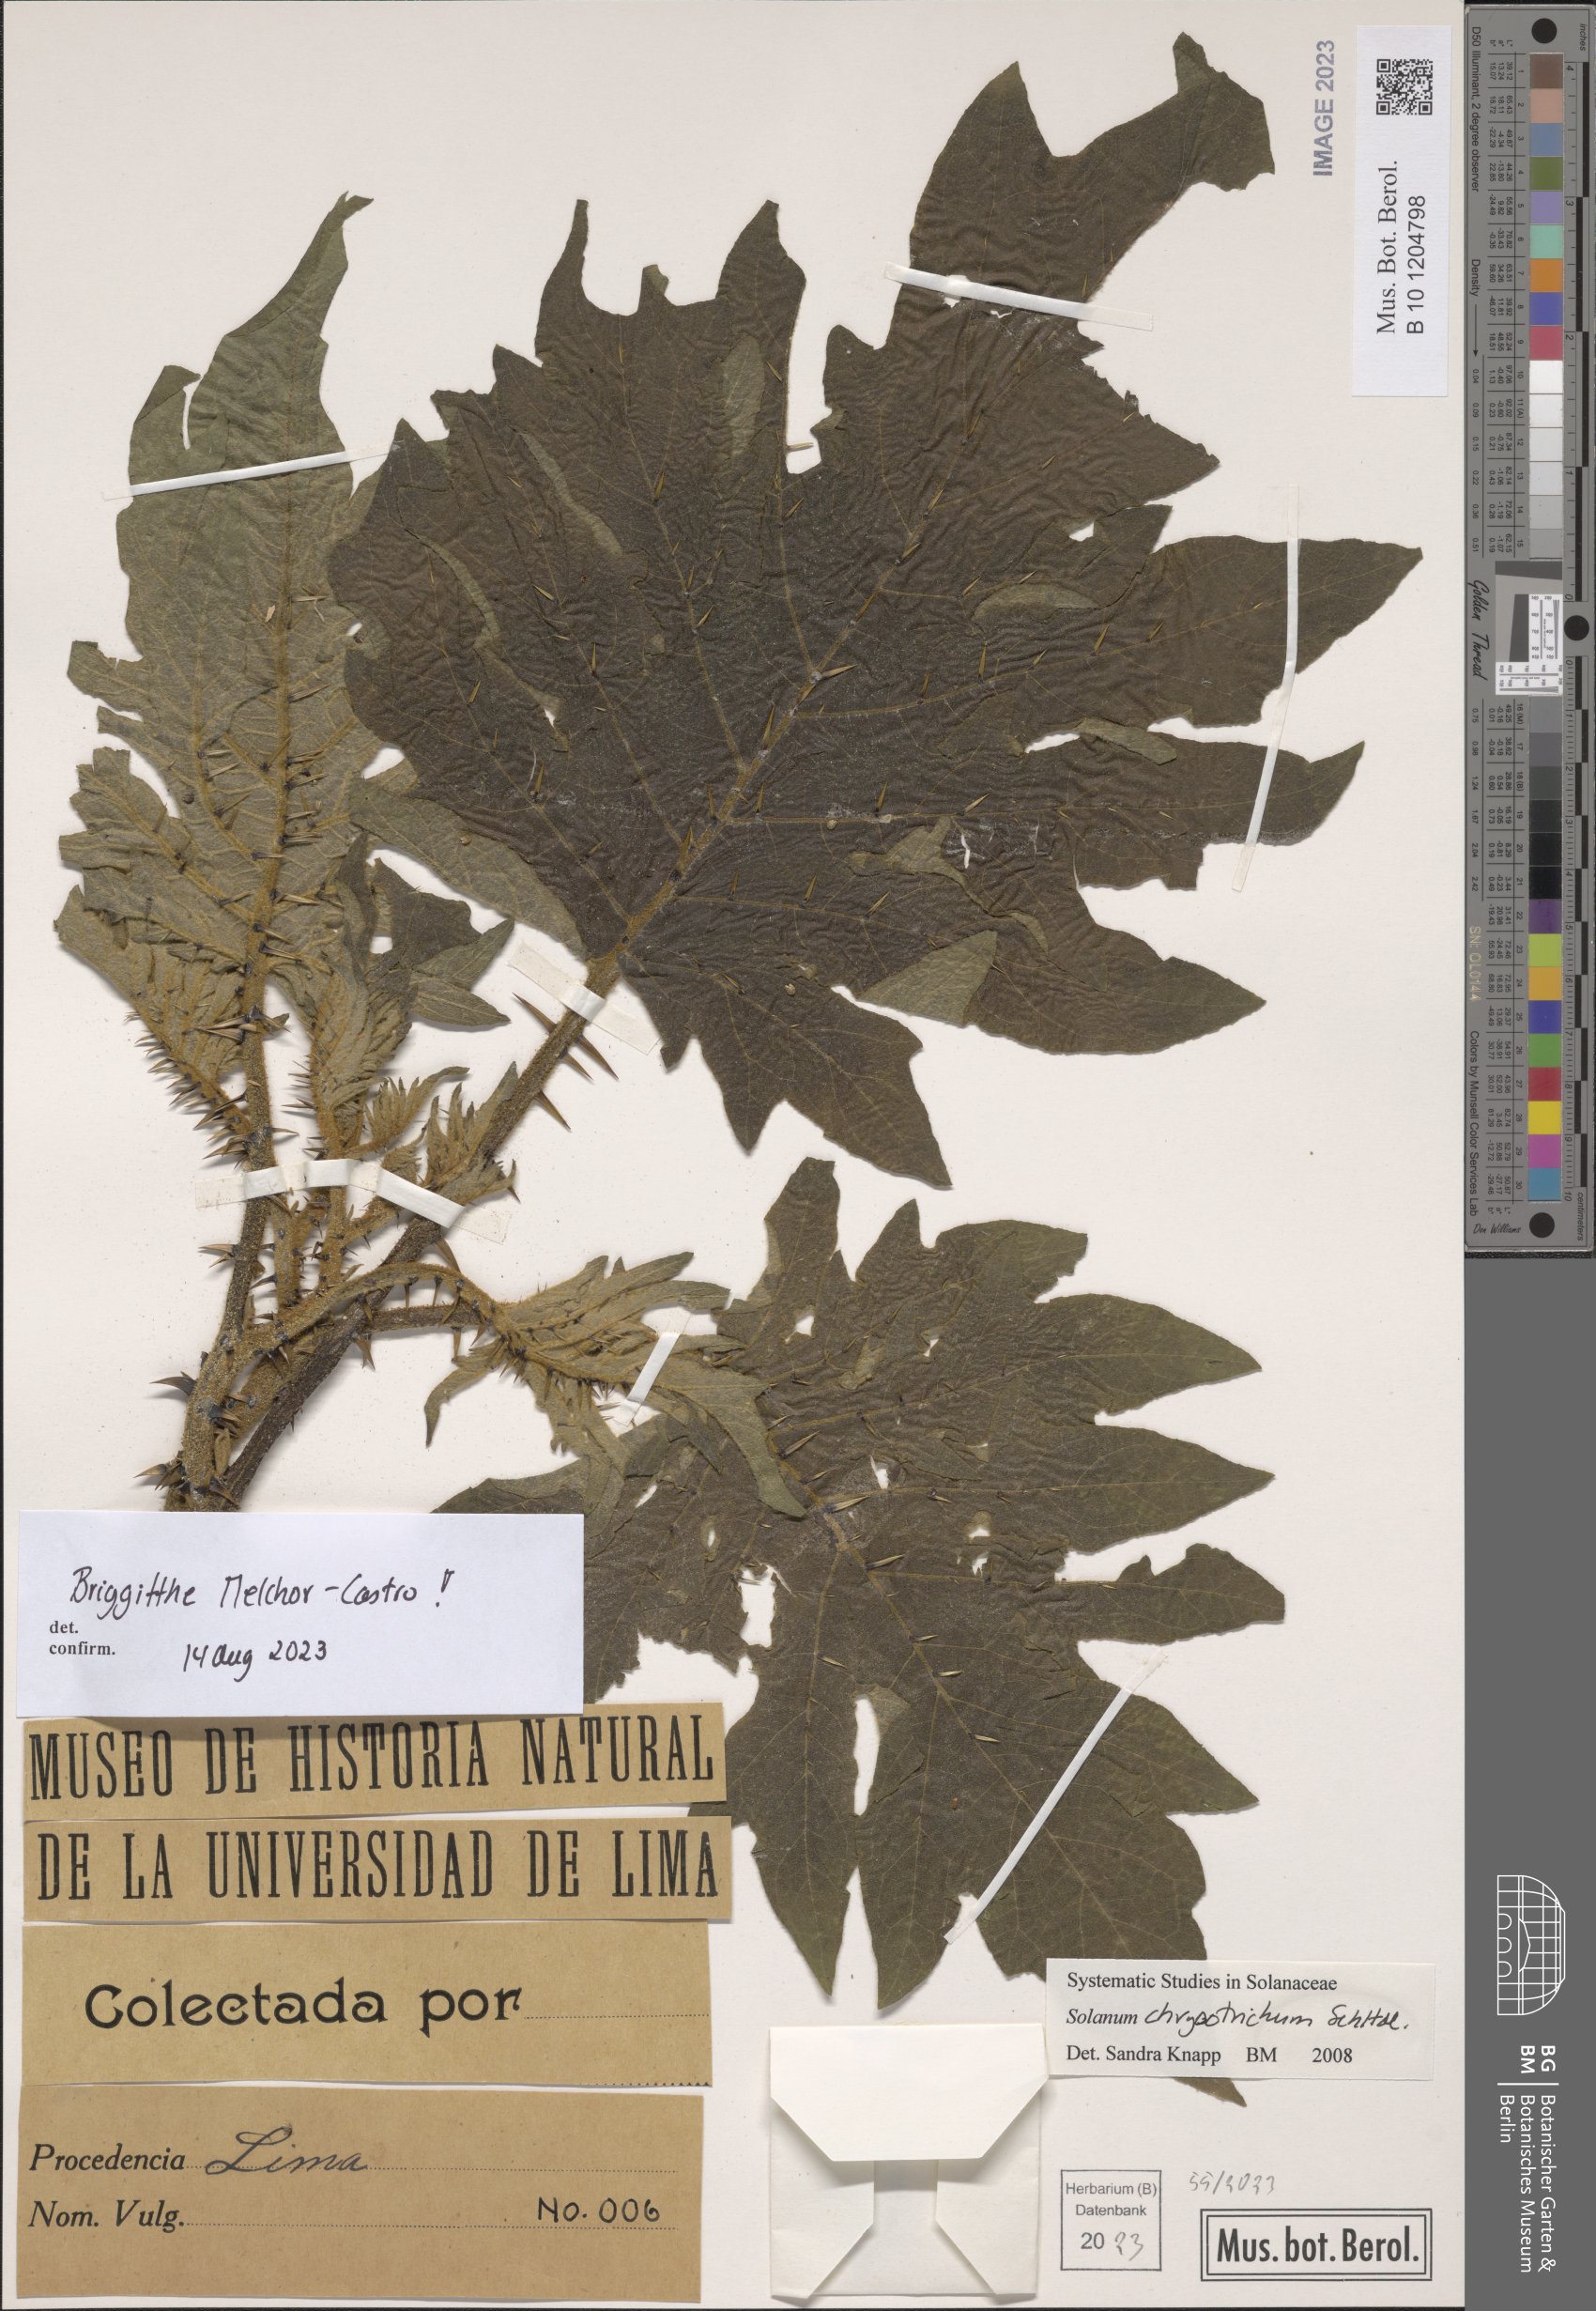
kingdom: Plantae
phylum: Tracheophyta
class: Magnoliopsida
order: Solanales
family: Solanaceae
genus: Solanum
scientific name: Solanum chrysotrichum
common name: Nightshade
